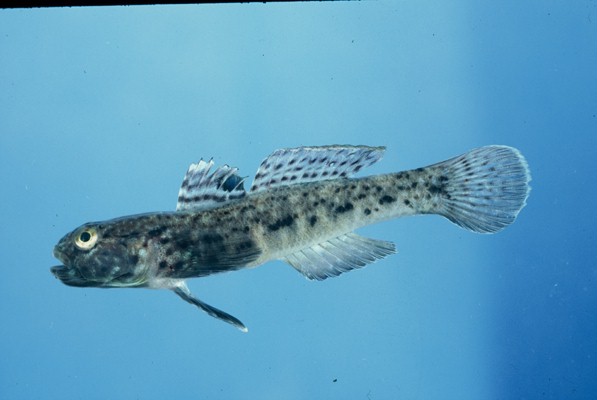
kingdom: Animalia
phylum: Chordata
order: Perciformes
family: Gobiidae
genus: Caffrogobius
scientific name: Caffrogobius saldanha
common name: Commafin goby
